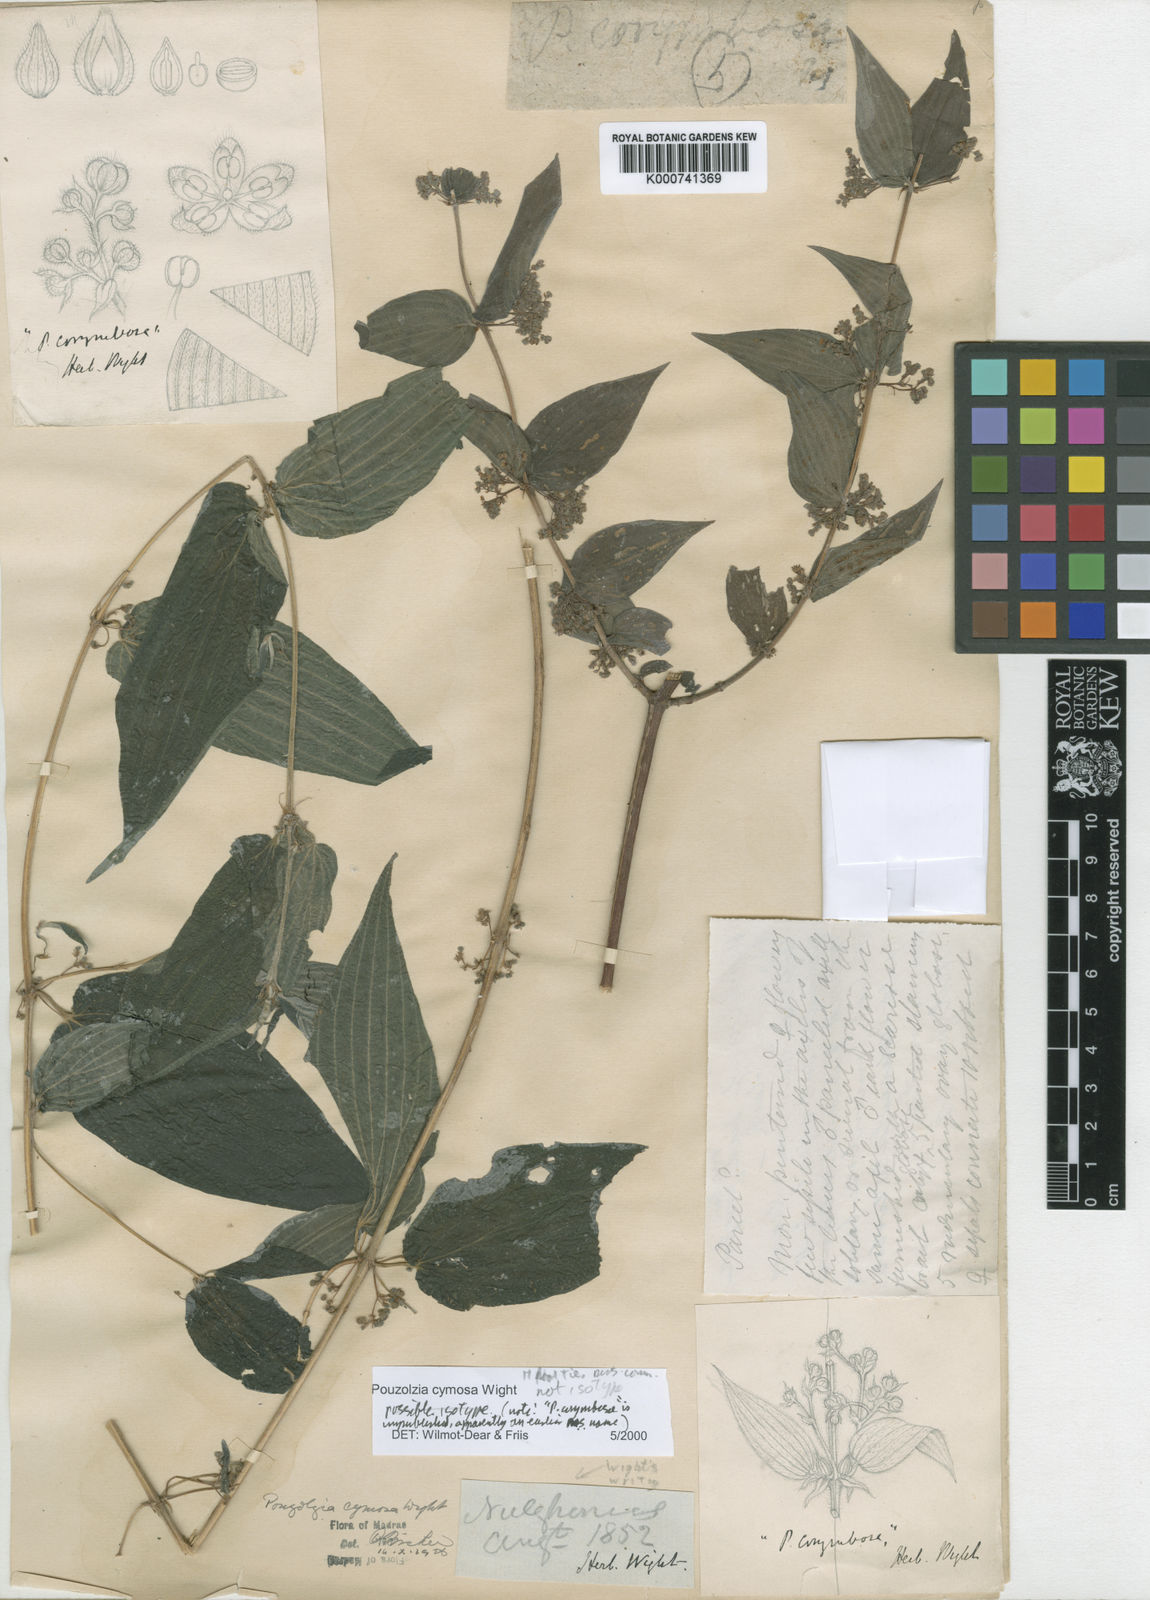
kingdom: Plantae
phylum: Tracheophyta
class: Magnoliopsida
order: Rosales
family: Urticaceae
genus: Pouzolzia
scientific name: Pouzolzia cymosa
